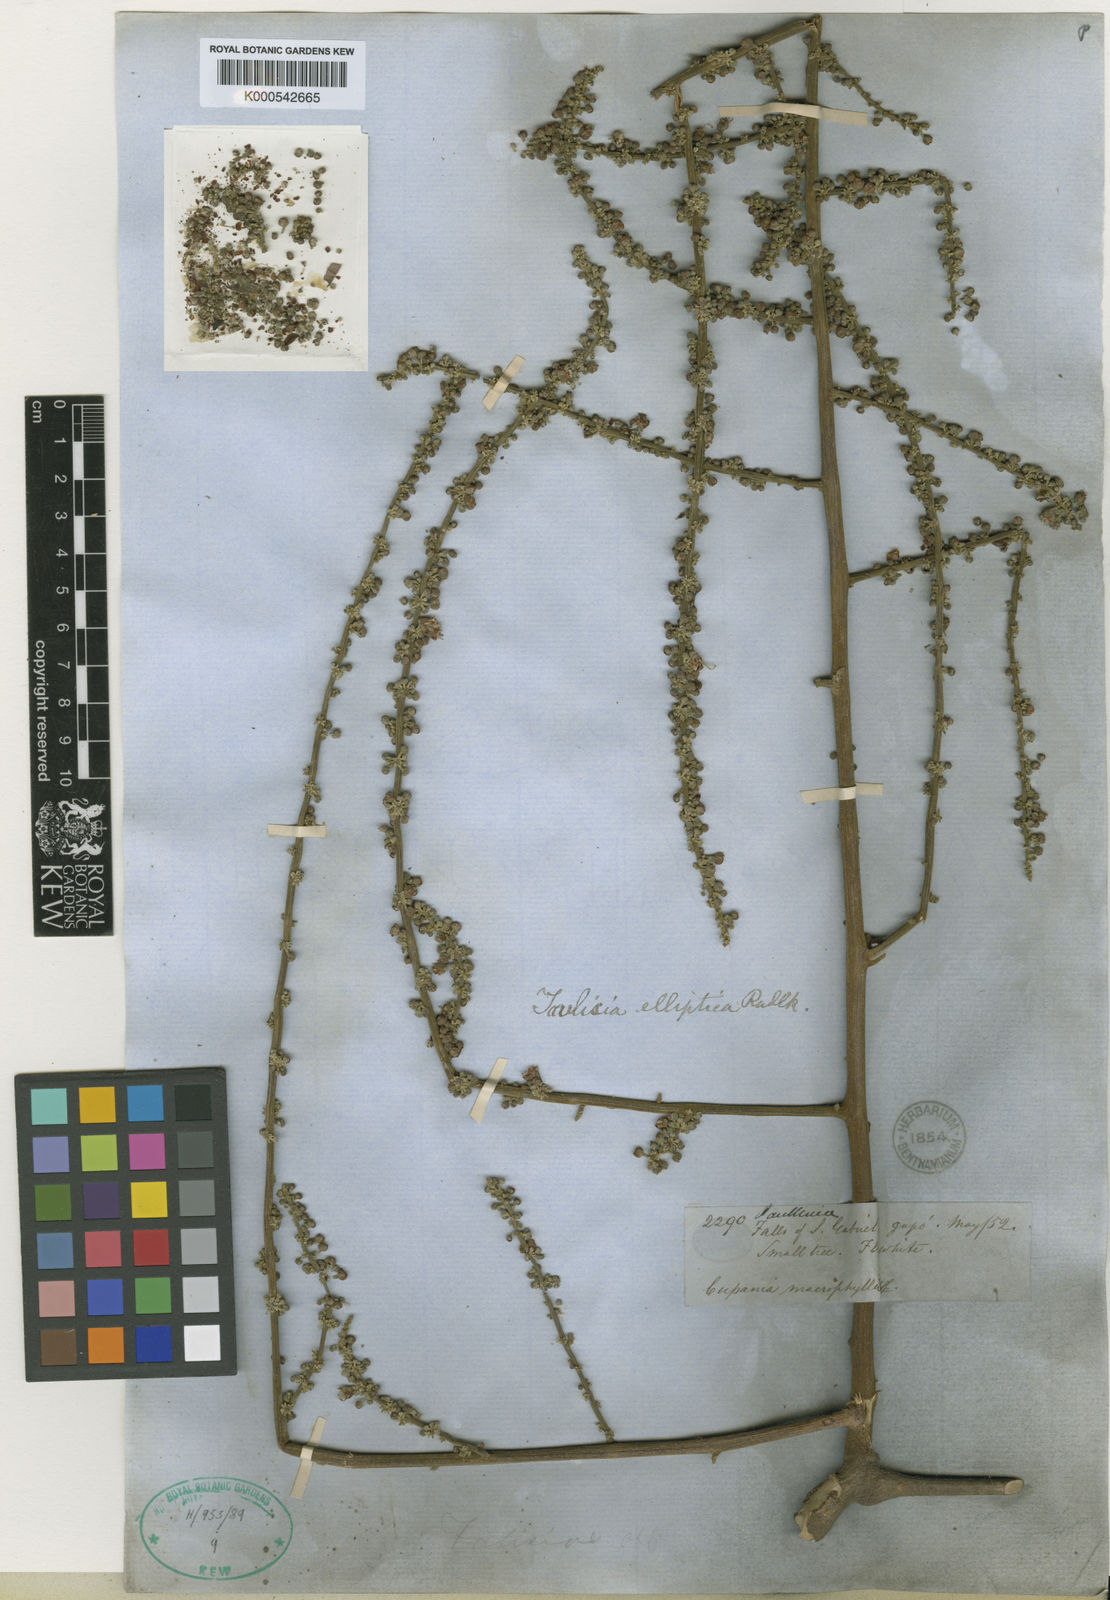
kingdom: Plantae
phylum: Tracheophyta
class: Magnoliopsida
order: Sapindales
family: Sapindaceae
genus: Toulicia
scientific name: Toulicia elliptica
